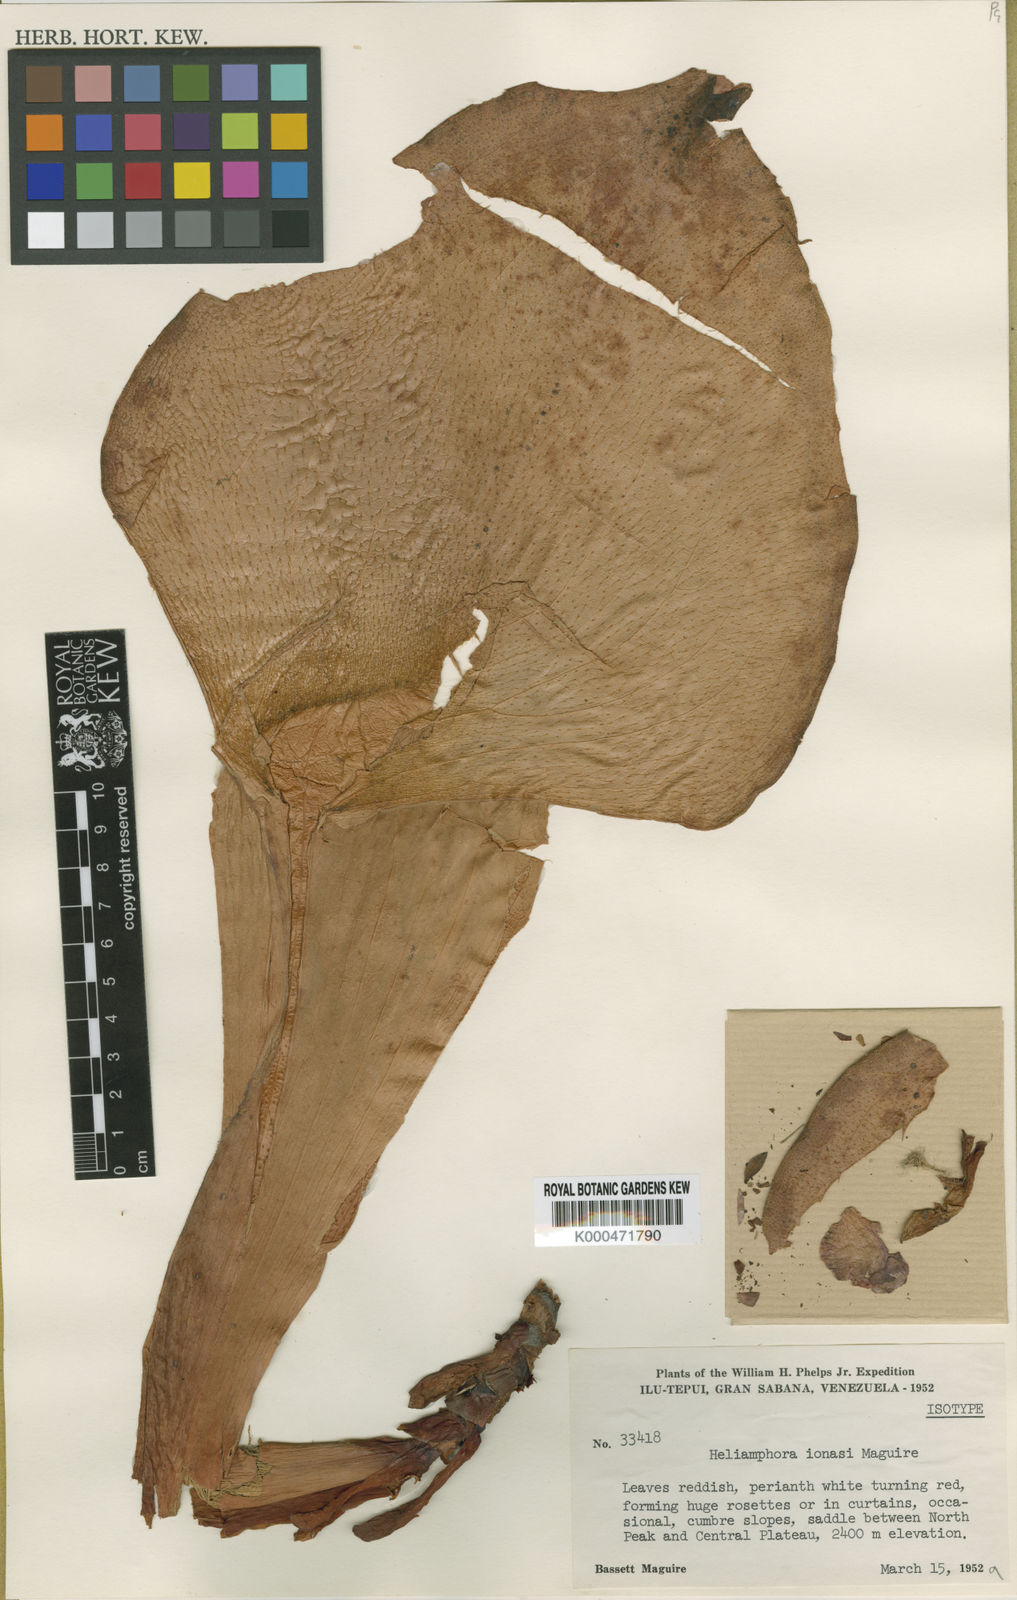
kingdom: Plantae
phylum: Tracheophyta
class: Magnoliopsida
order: Ericales
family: Sarraceniaceae
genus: Heliamphora
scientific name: Heliamphora ionasi
